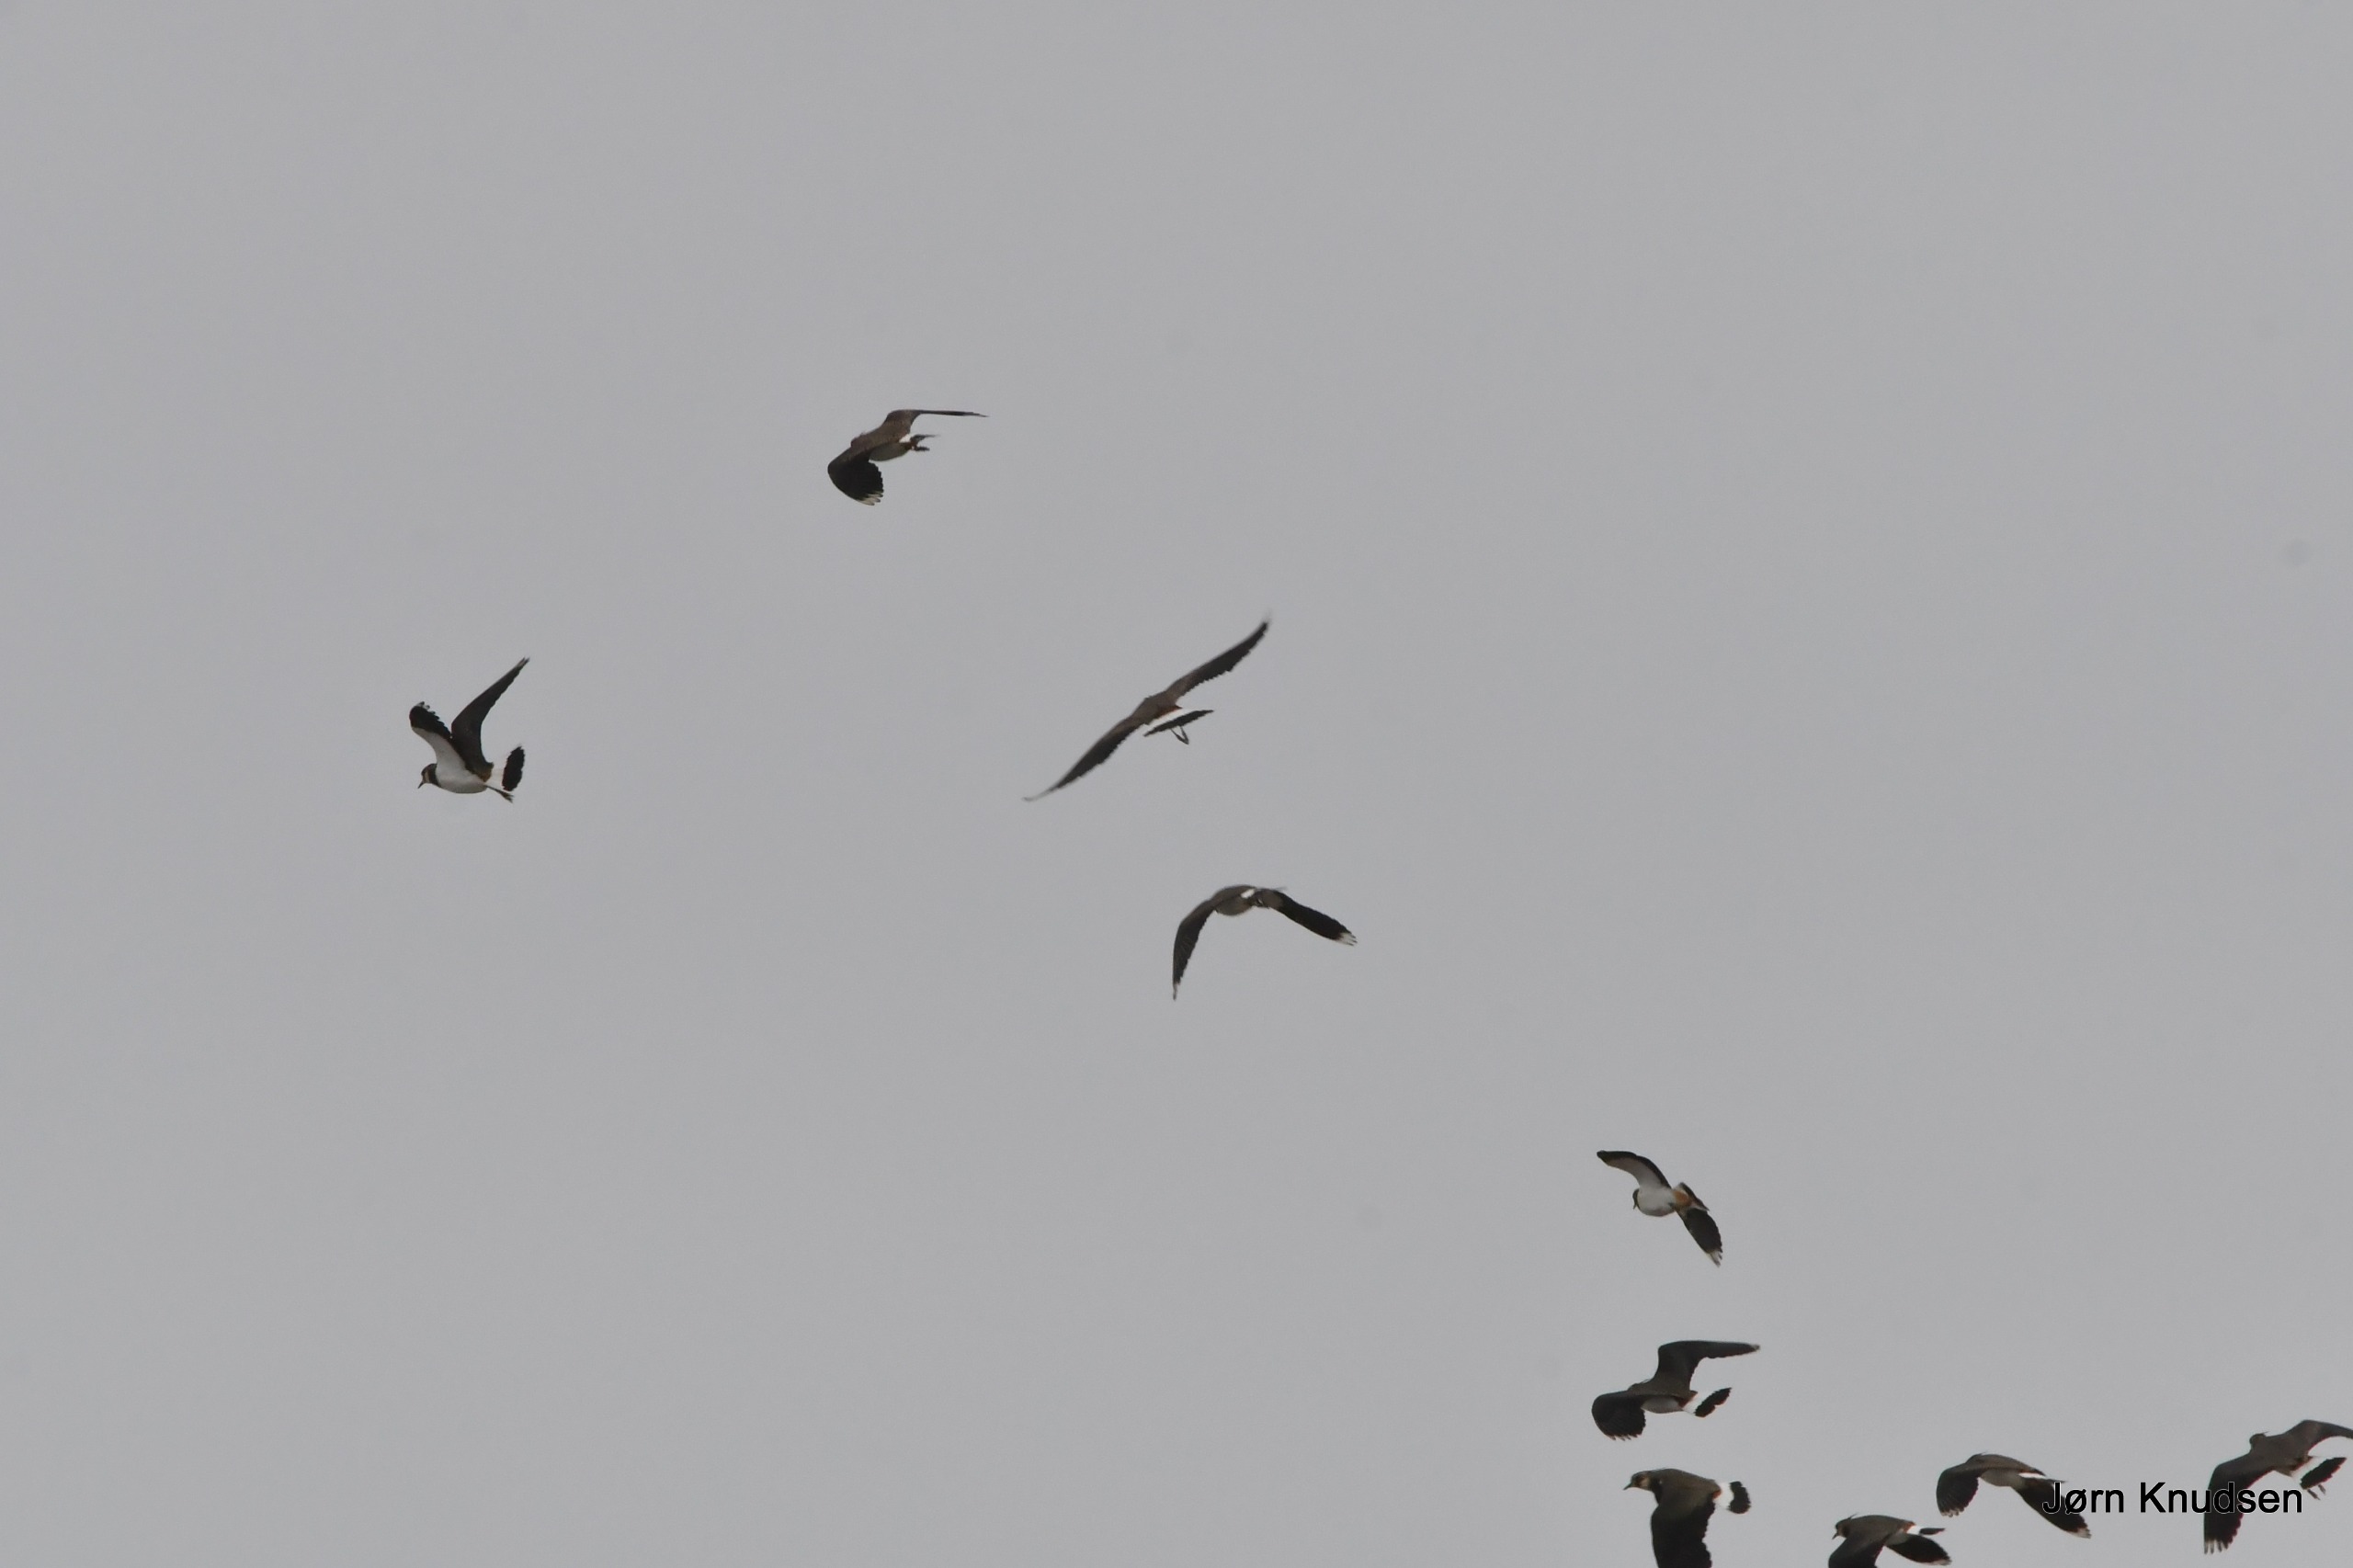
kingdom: Animalia
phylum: Chordata
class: Aves
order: Charadriiformes
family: Charadriidae
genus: Vanellus
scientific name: Vanellus vanellus
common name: Vibe
